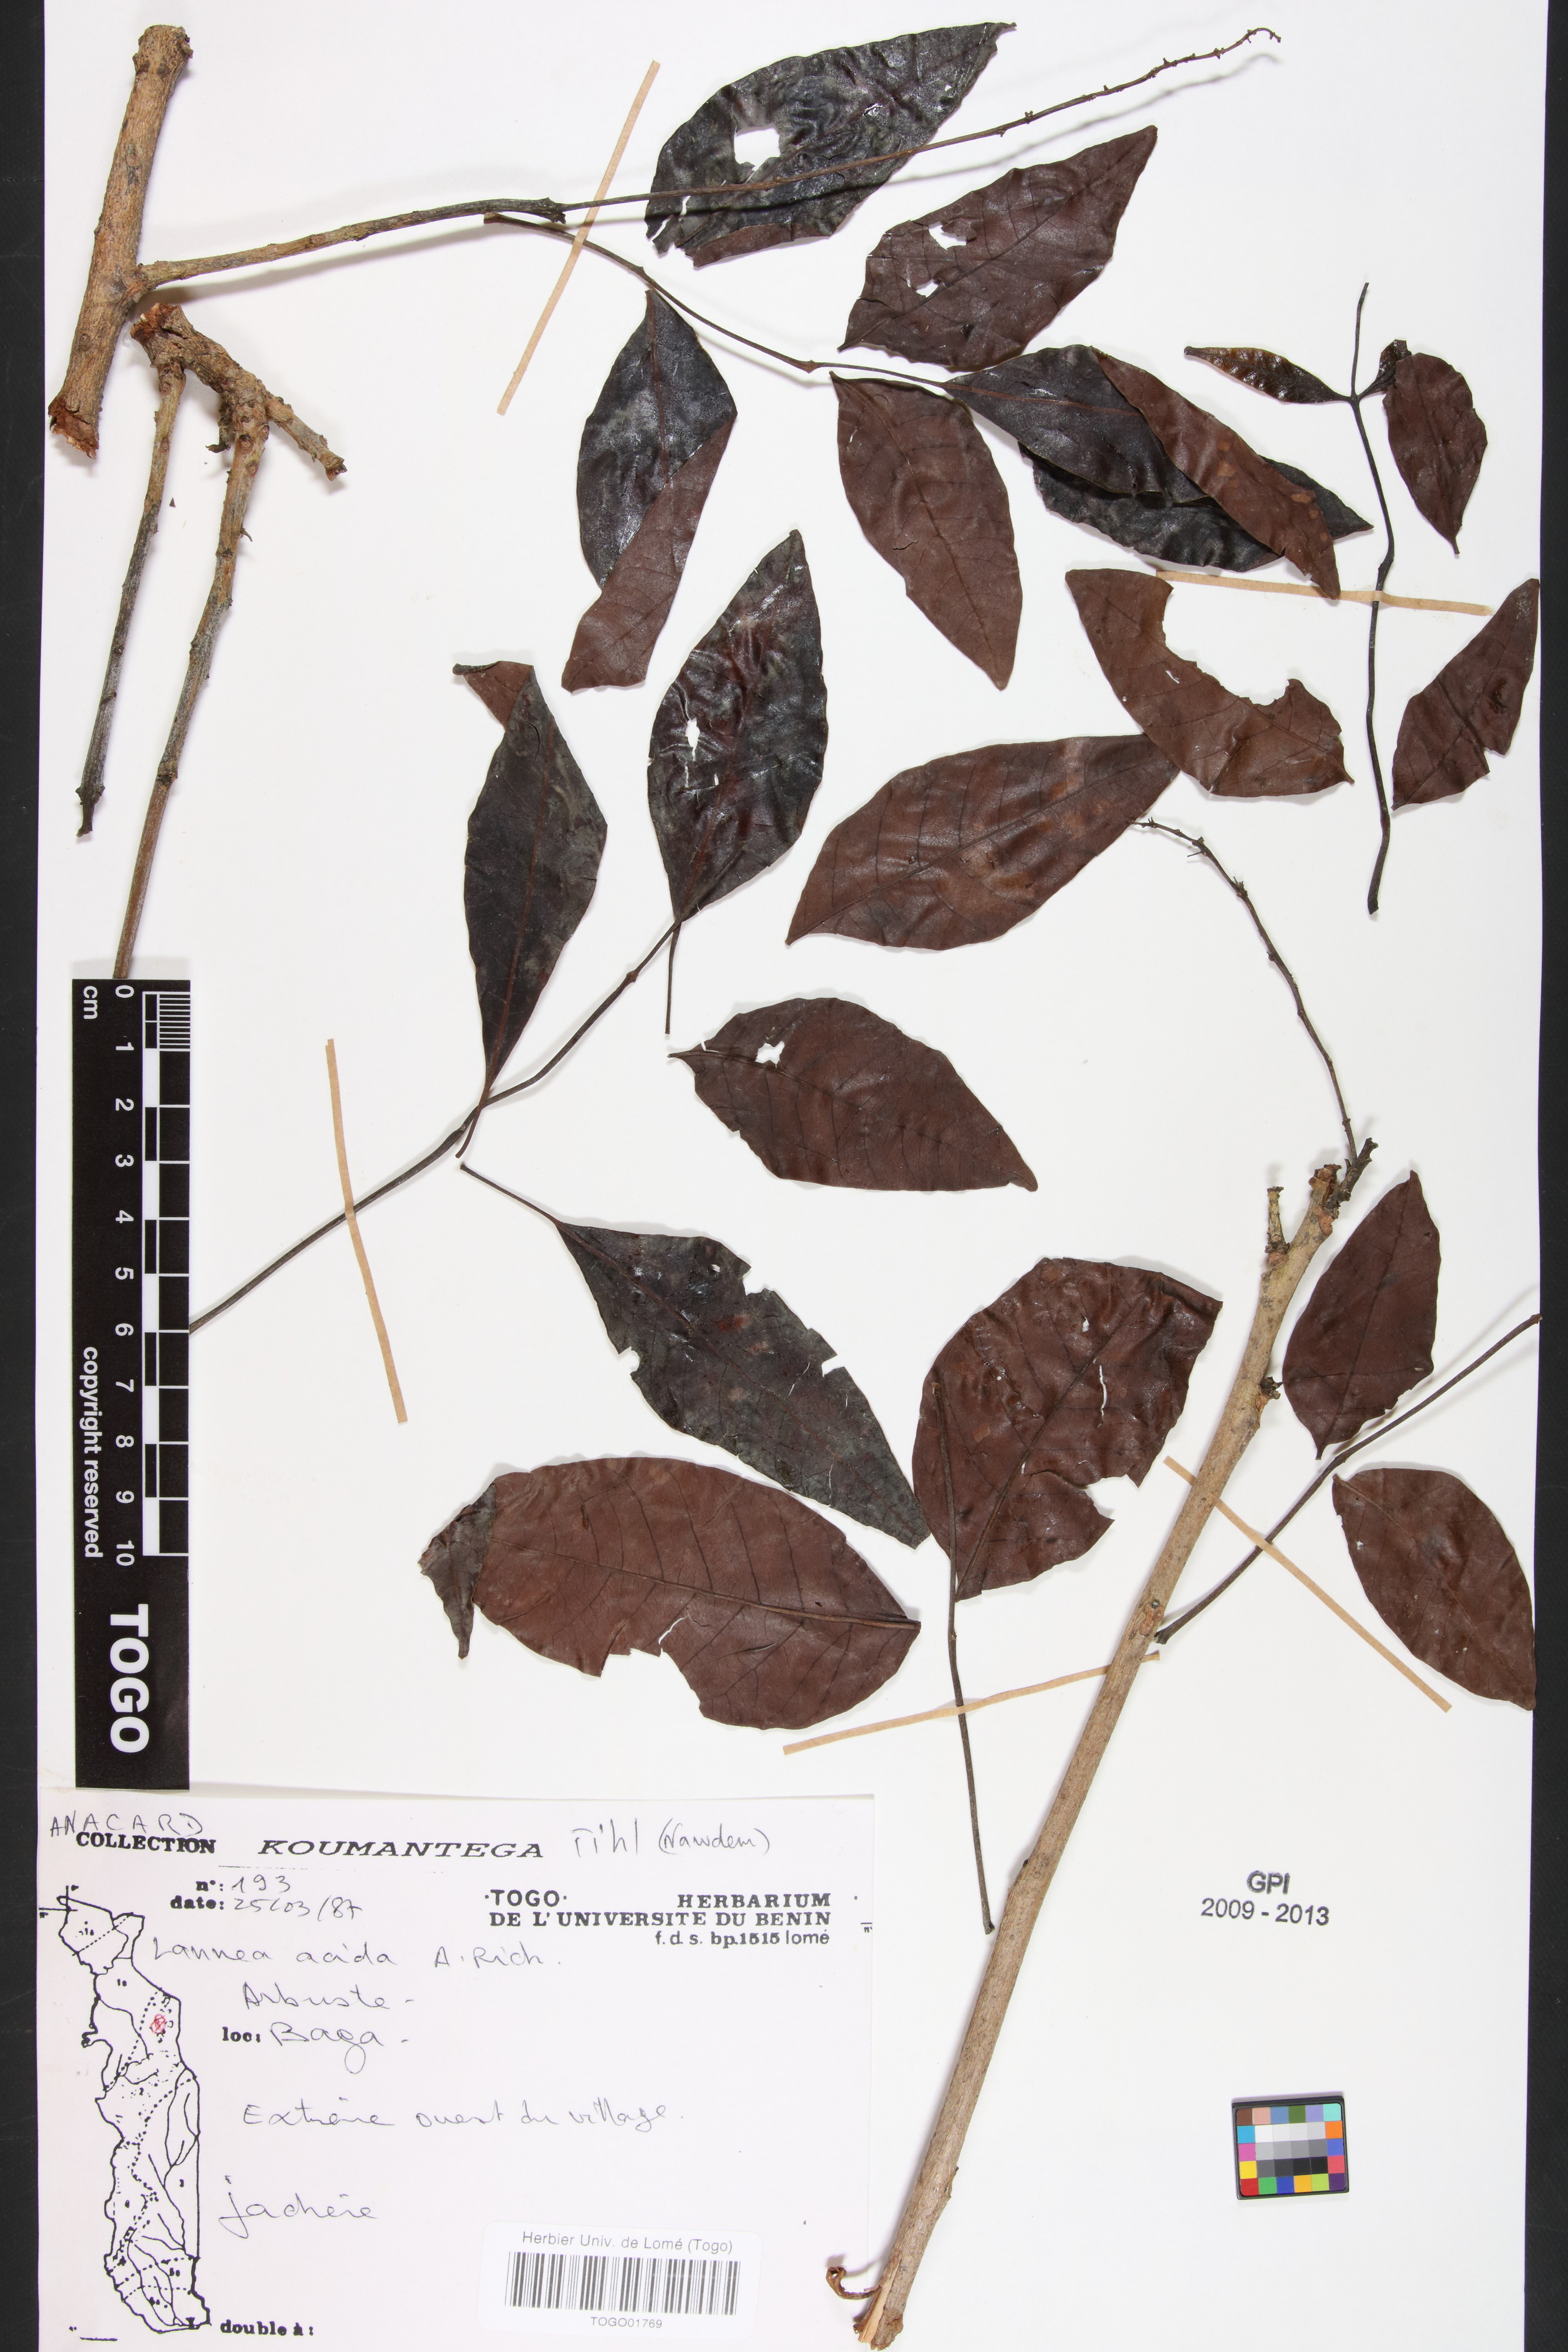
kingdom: Plantae
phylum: Tracheophyta
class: Magnoliopsida
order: Sapindales
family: Anacardiaceae
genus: Lannea
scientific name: Lannea acida
